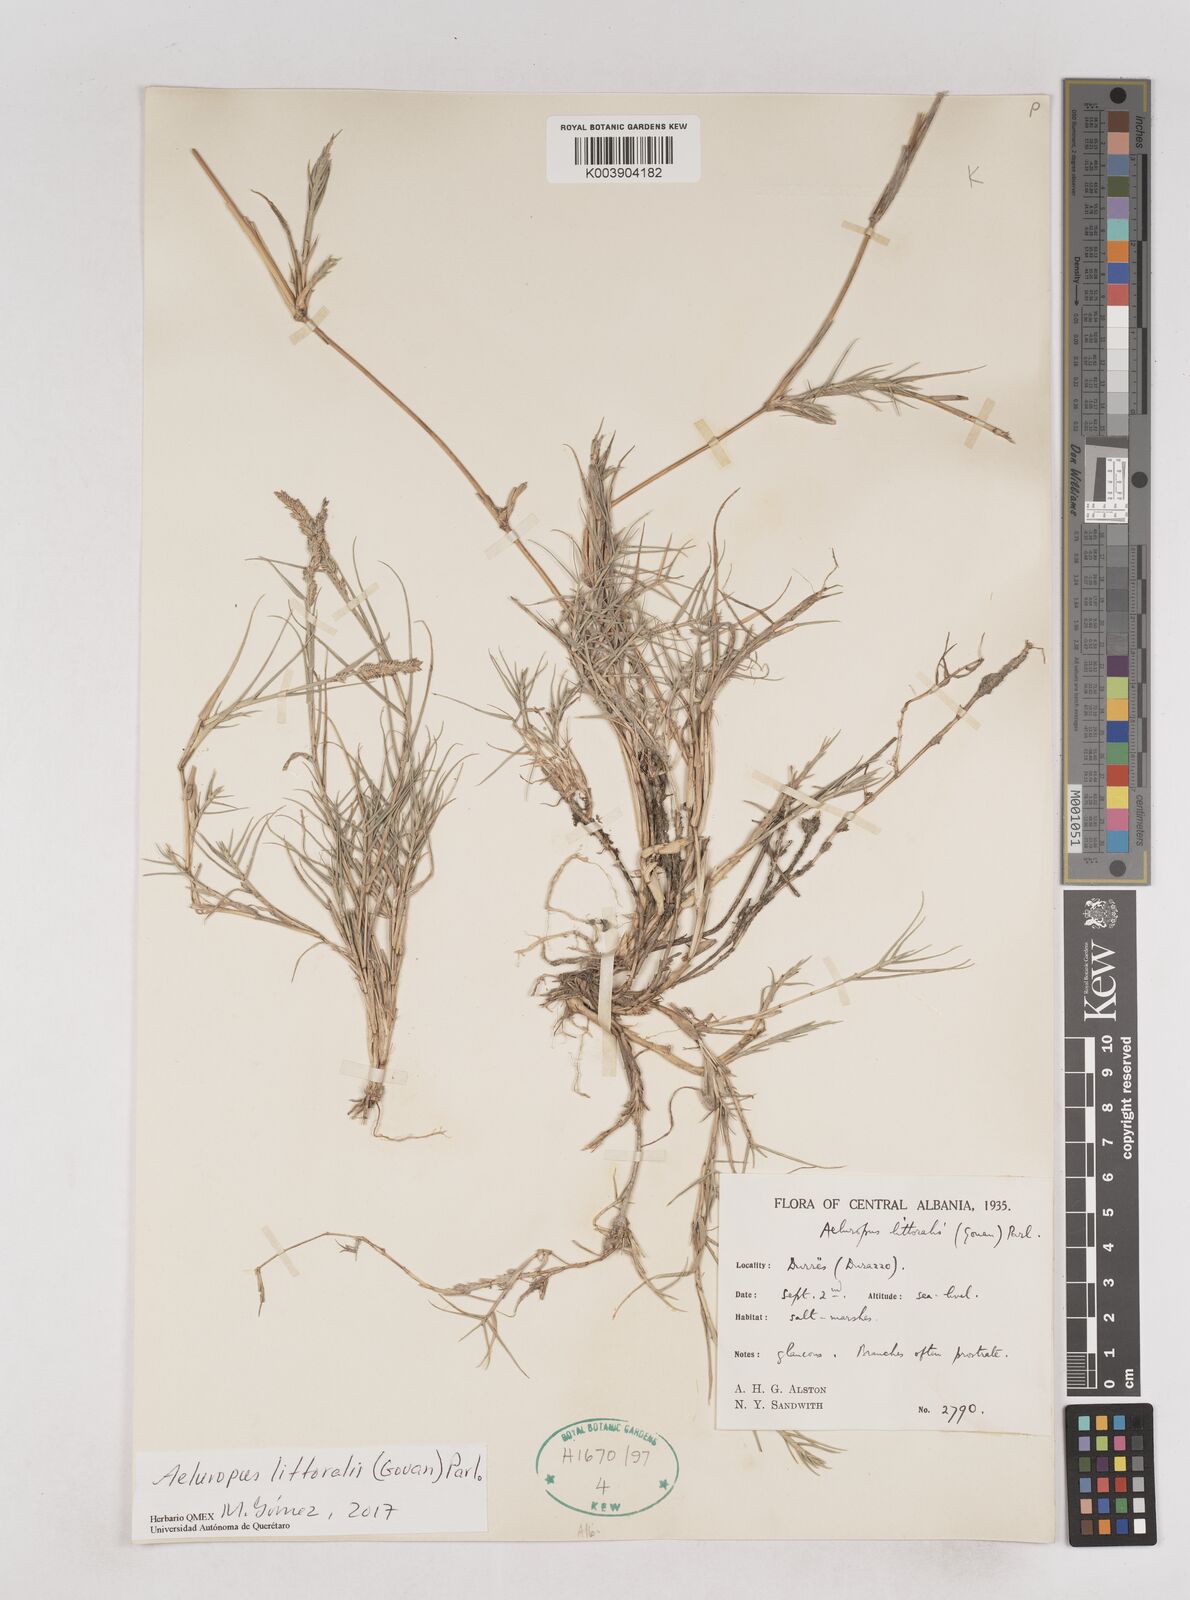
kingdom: Plantae
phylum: Tracheophyta
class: Liliopsida
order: Poales
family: Poaceae
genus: Aeluropus
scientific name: Aeluropus littoralis
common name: Indian walnut
